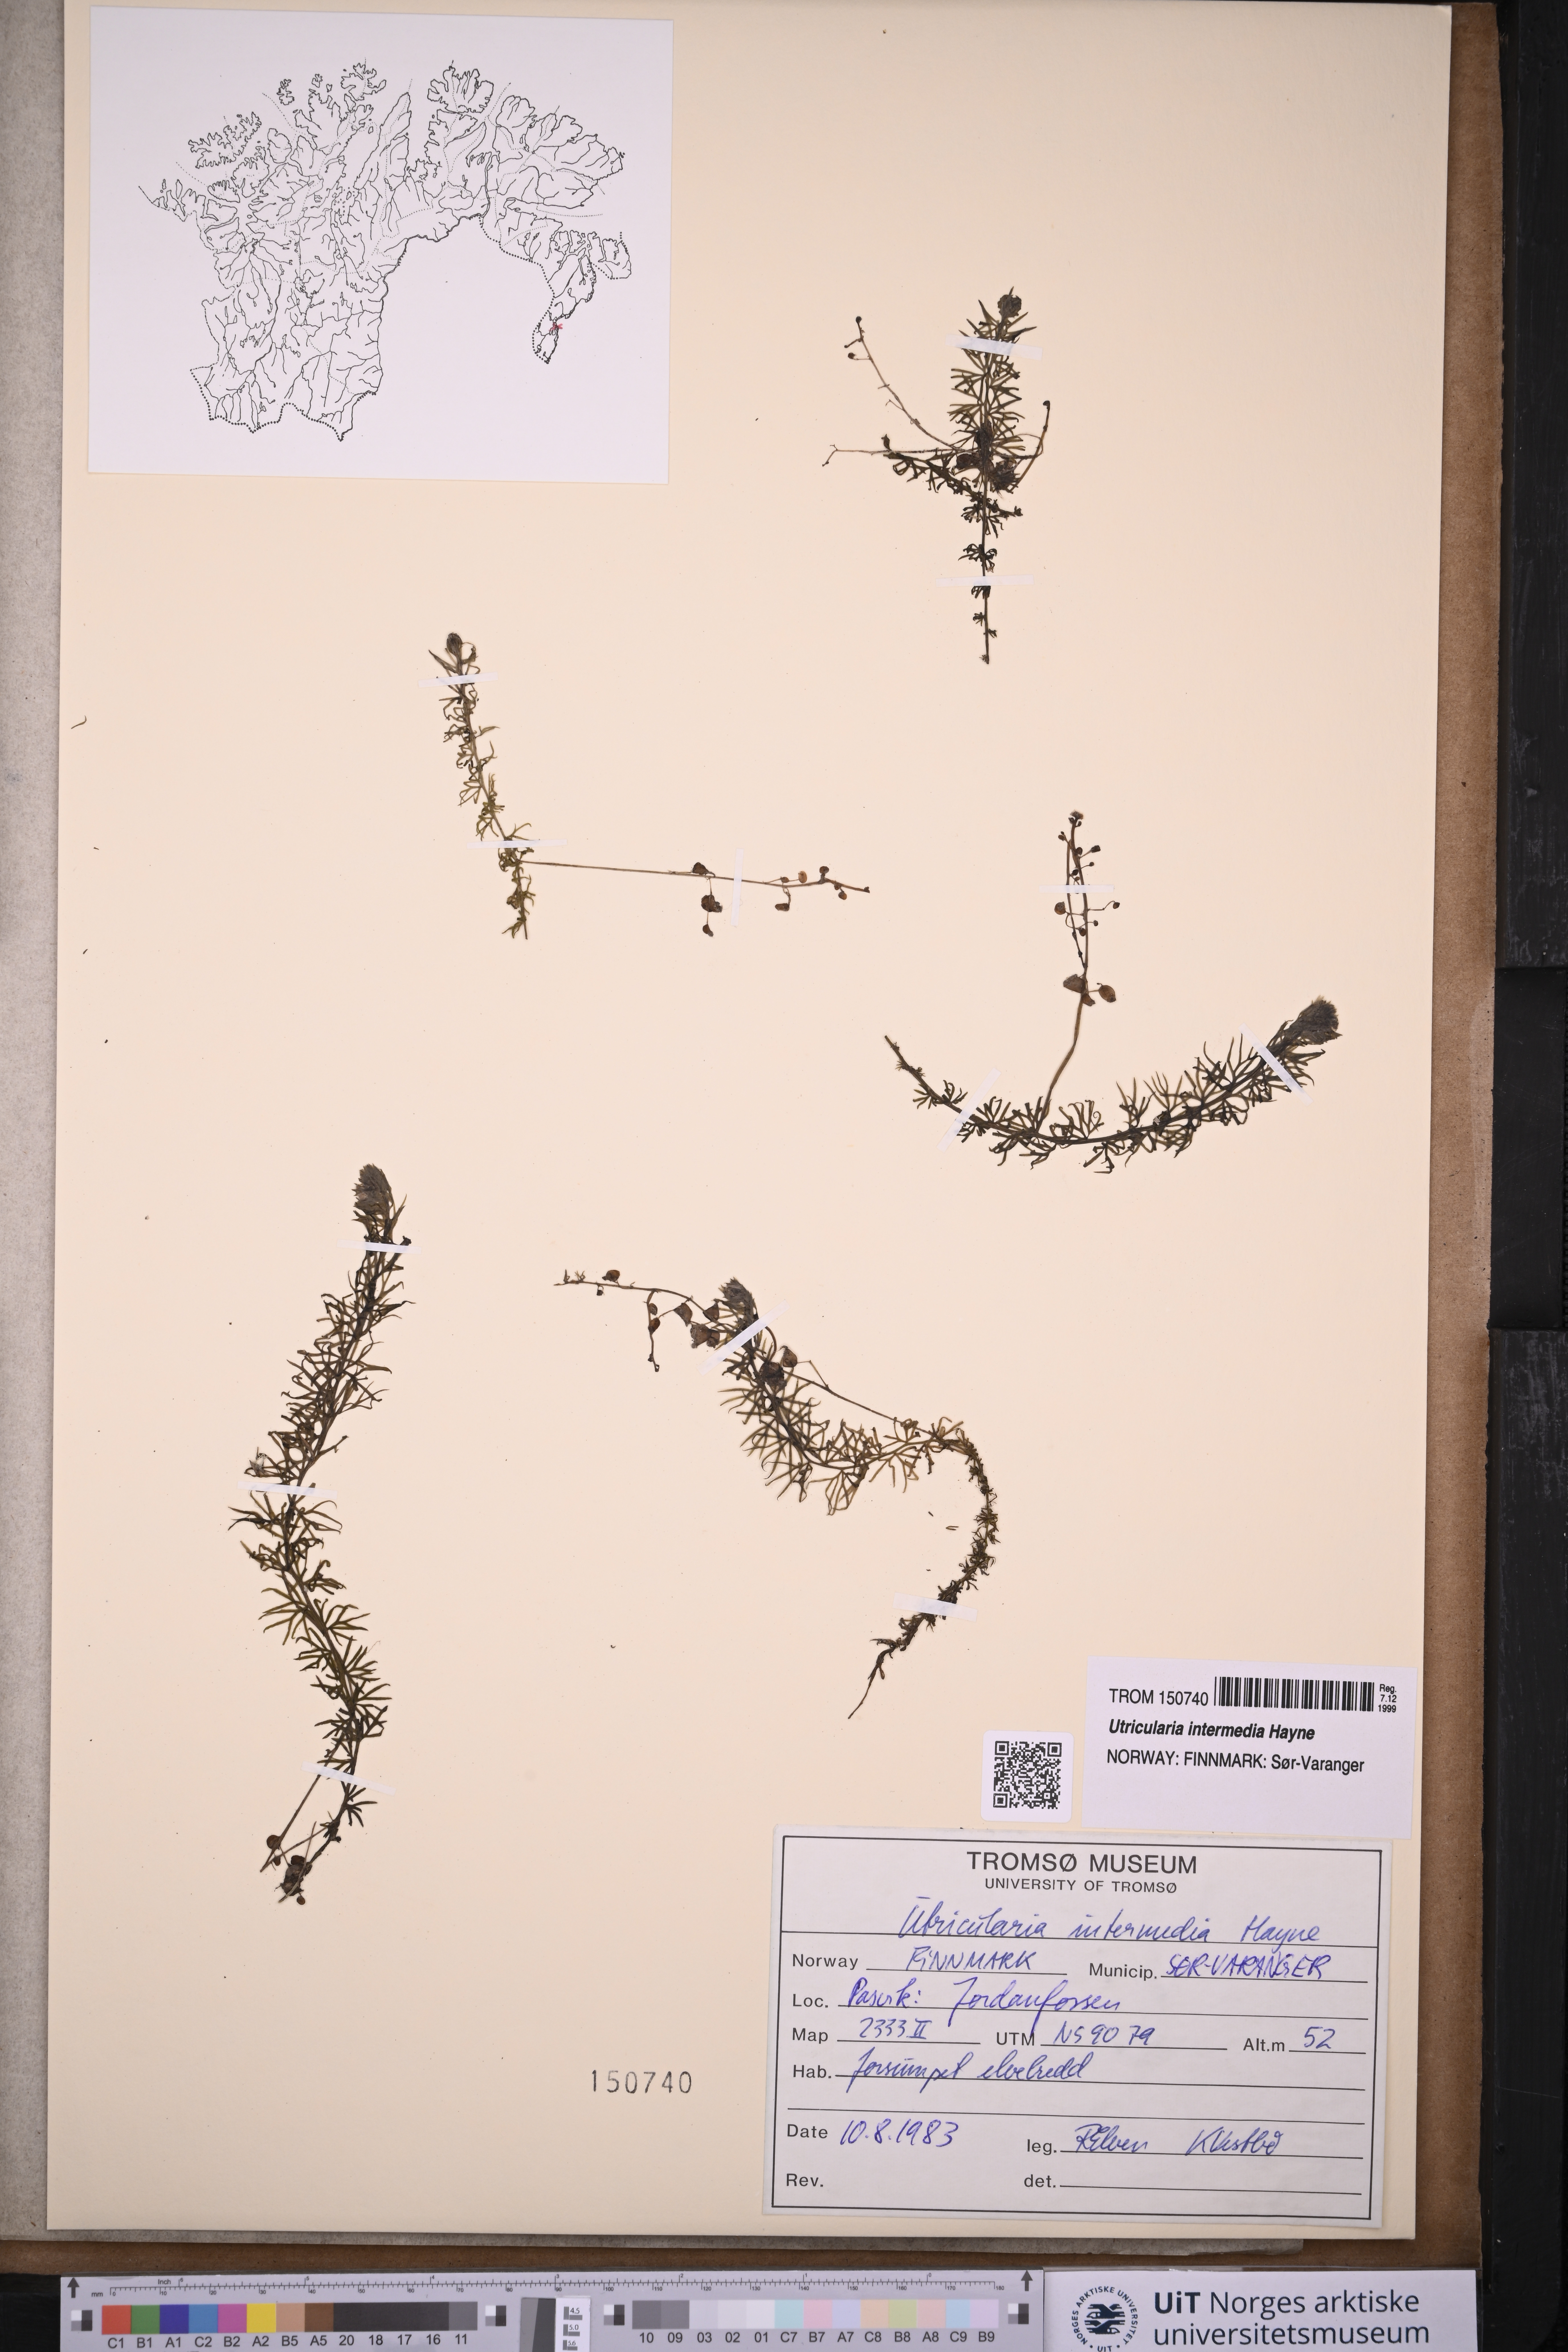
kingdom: Plantae
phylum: Tracheophyta
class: Magnoliopsida
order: Lamiales
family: Lentibulariaceae
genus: Utricularia
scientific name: Utricularia intermedia
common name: Intermediate bladderwort
